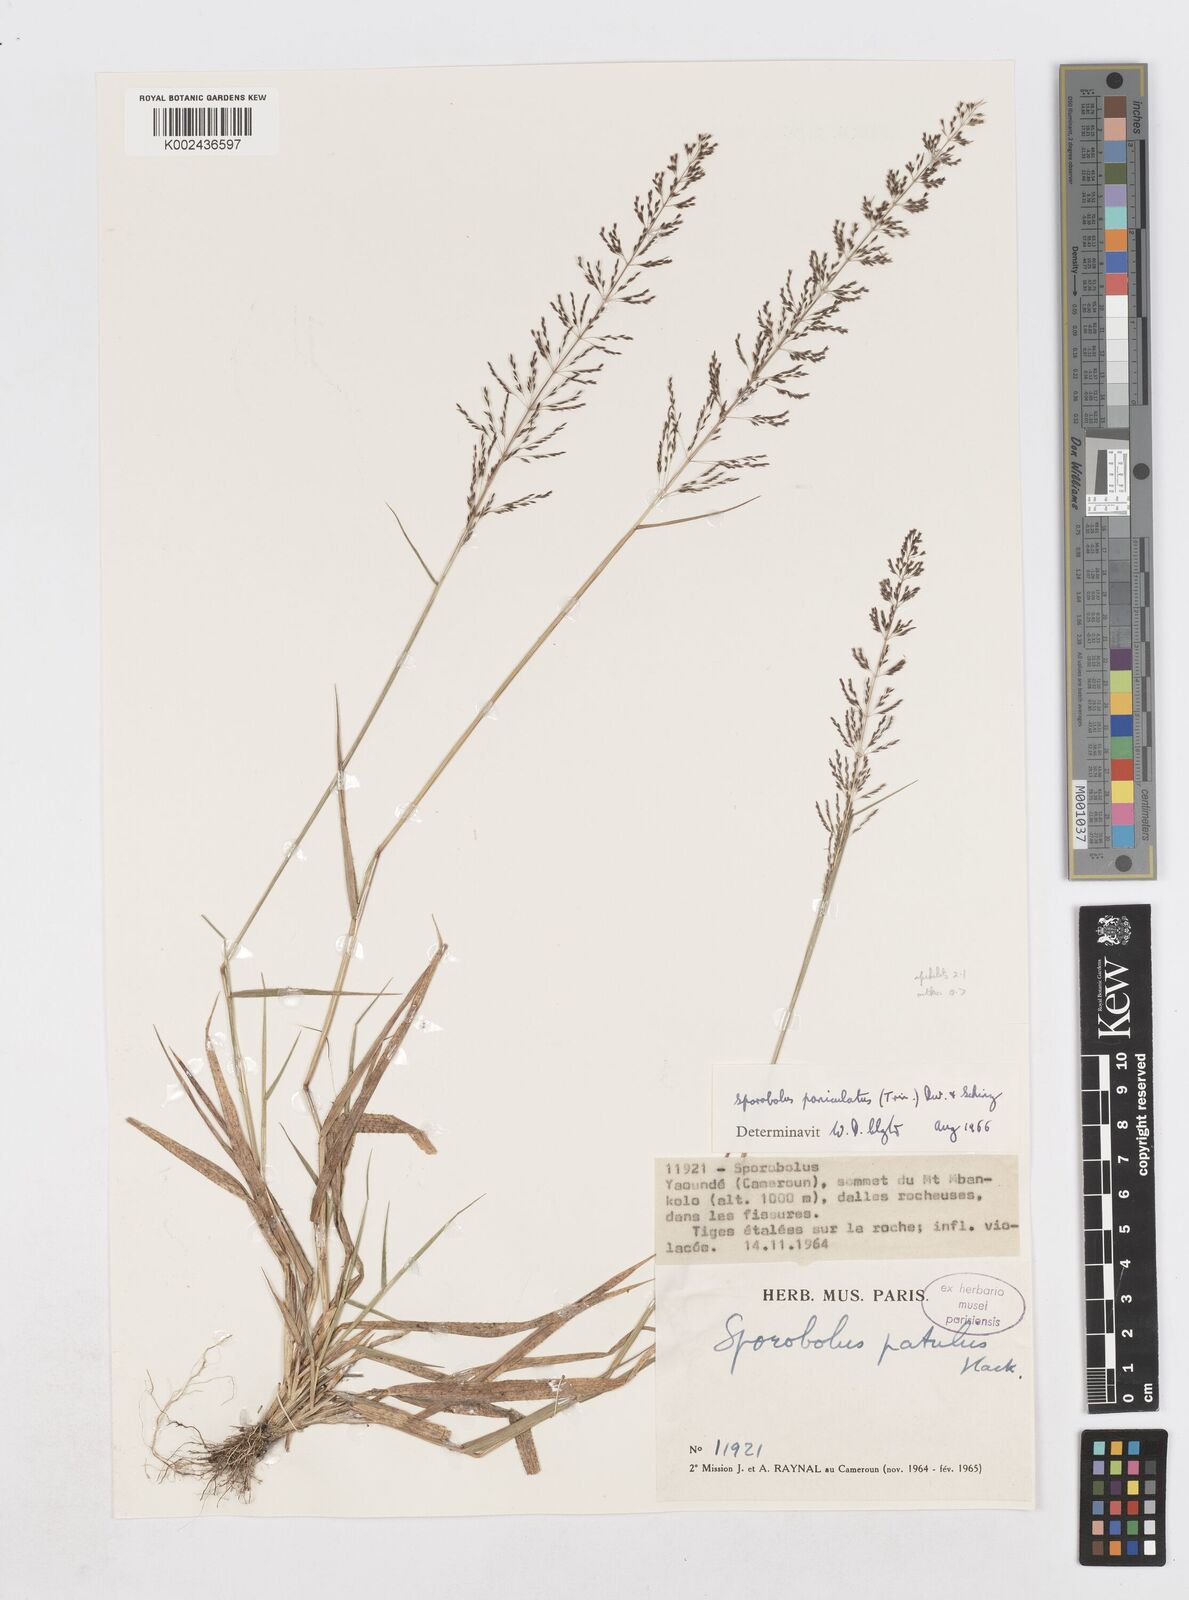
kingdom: Plantae
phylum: Tracheophyta
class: Liliopsida
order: Poales
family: Poaceae
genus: Sporobolus
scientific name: Sporobolus paniculatus
